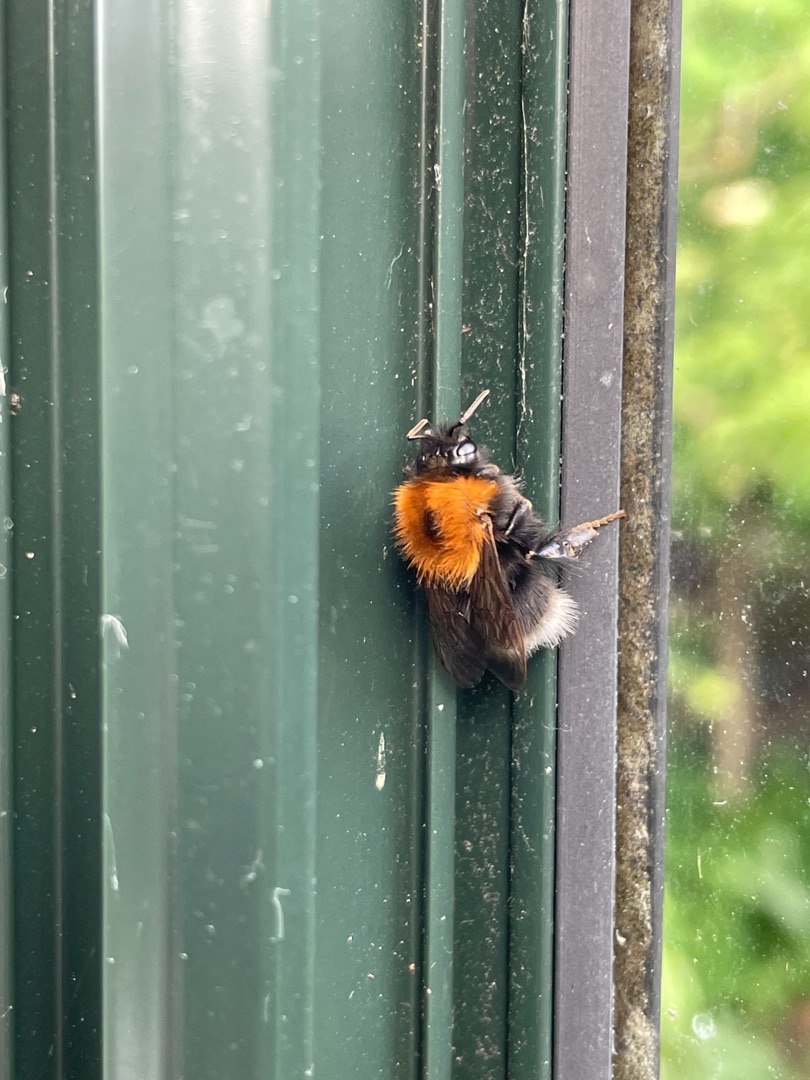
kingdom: Animalia
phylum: Arthropoda
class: Insecta
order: Hymenoptera
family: Apidae
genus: Bombus
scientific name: Bombus hypnorum
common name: Hushumle
